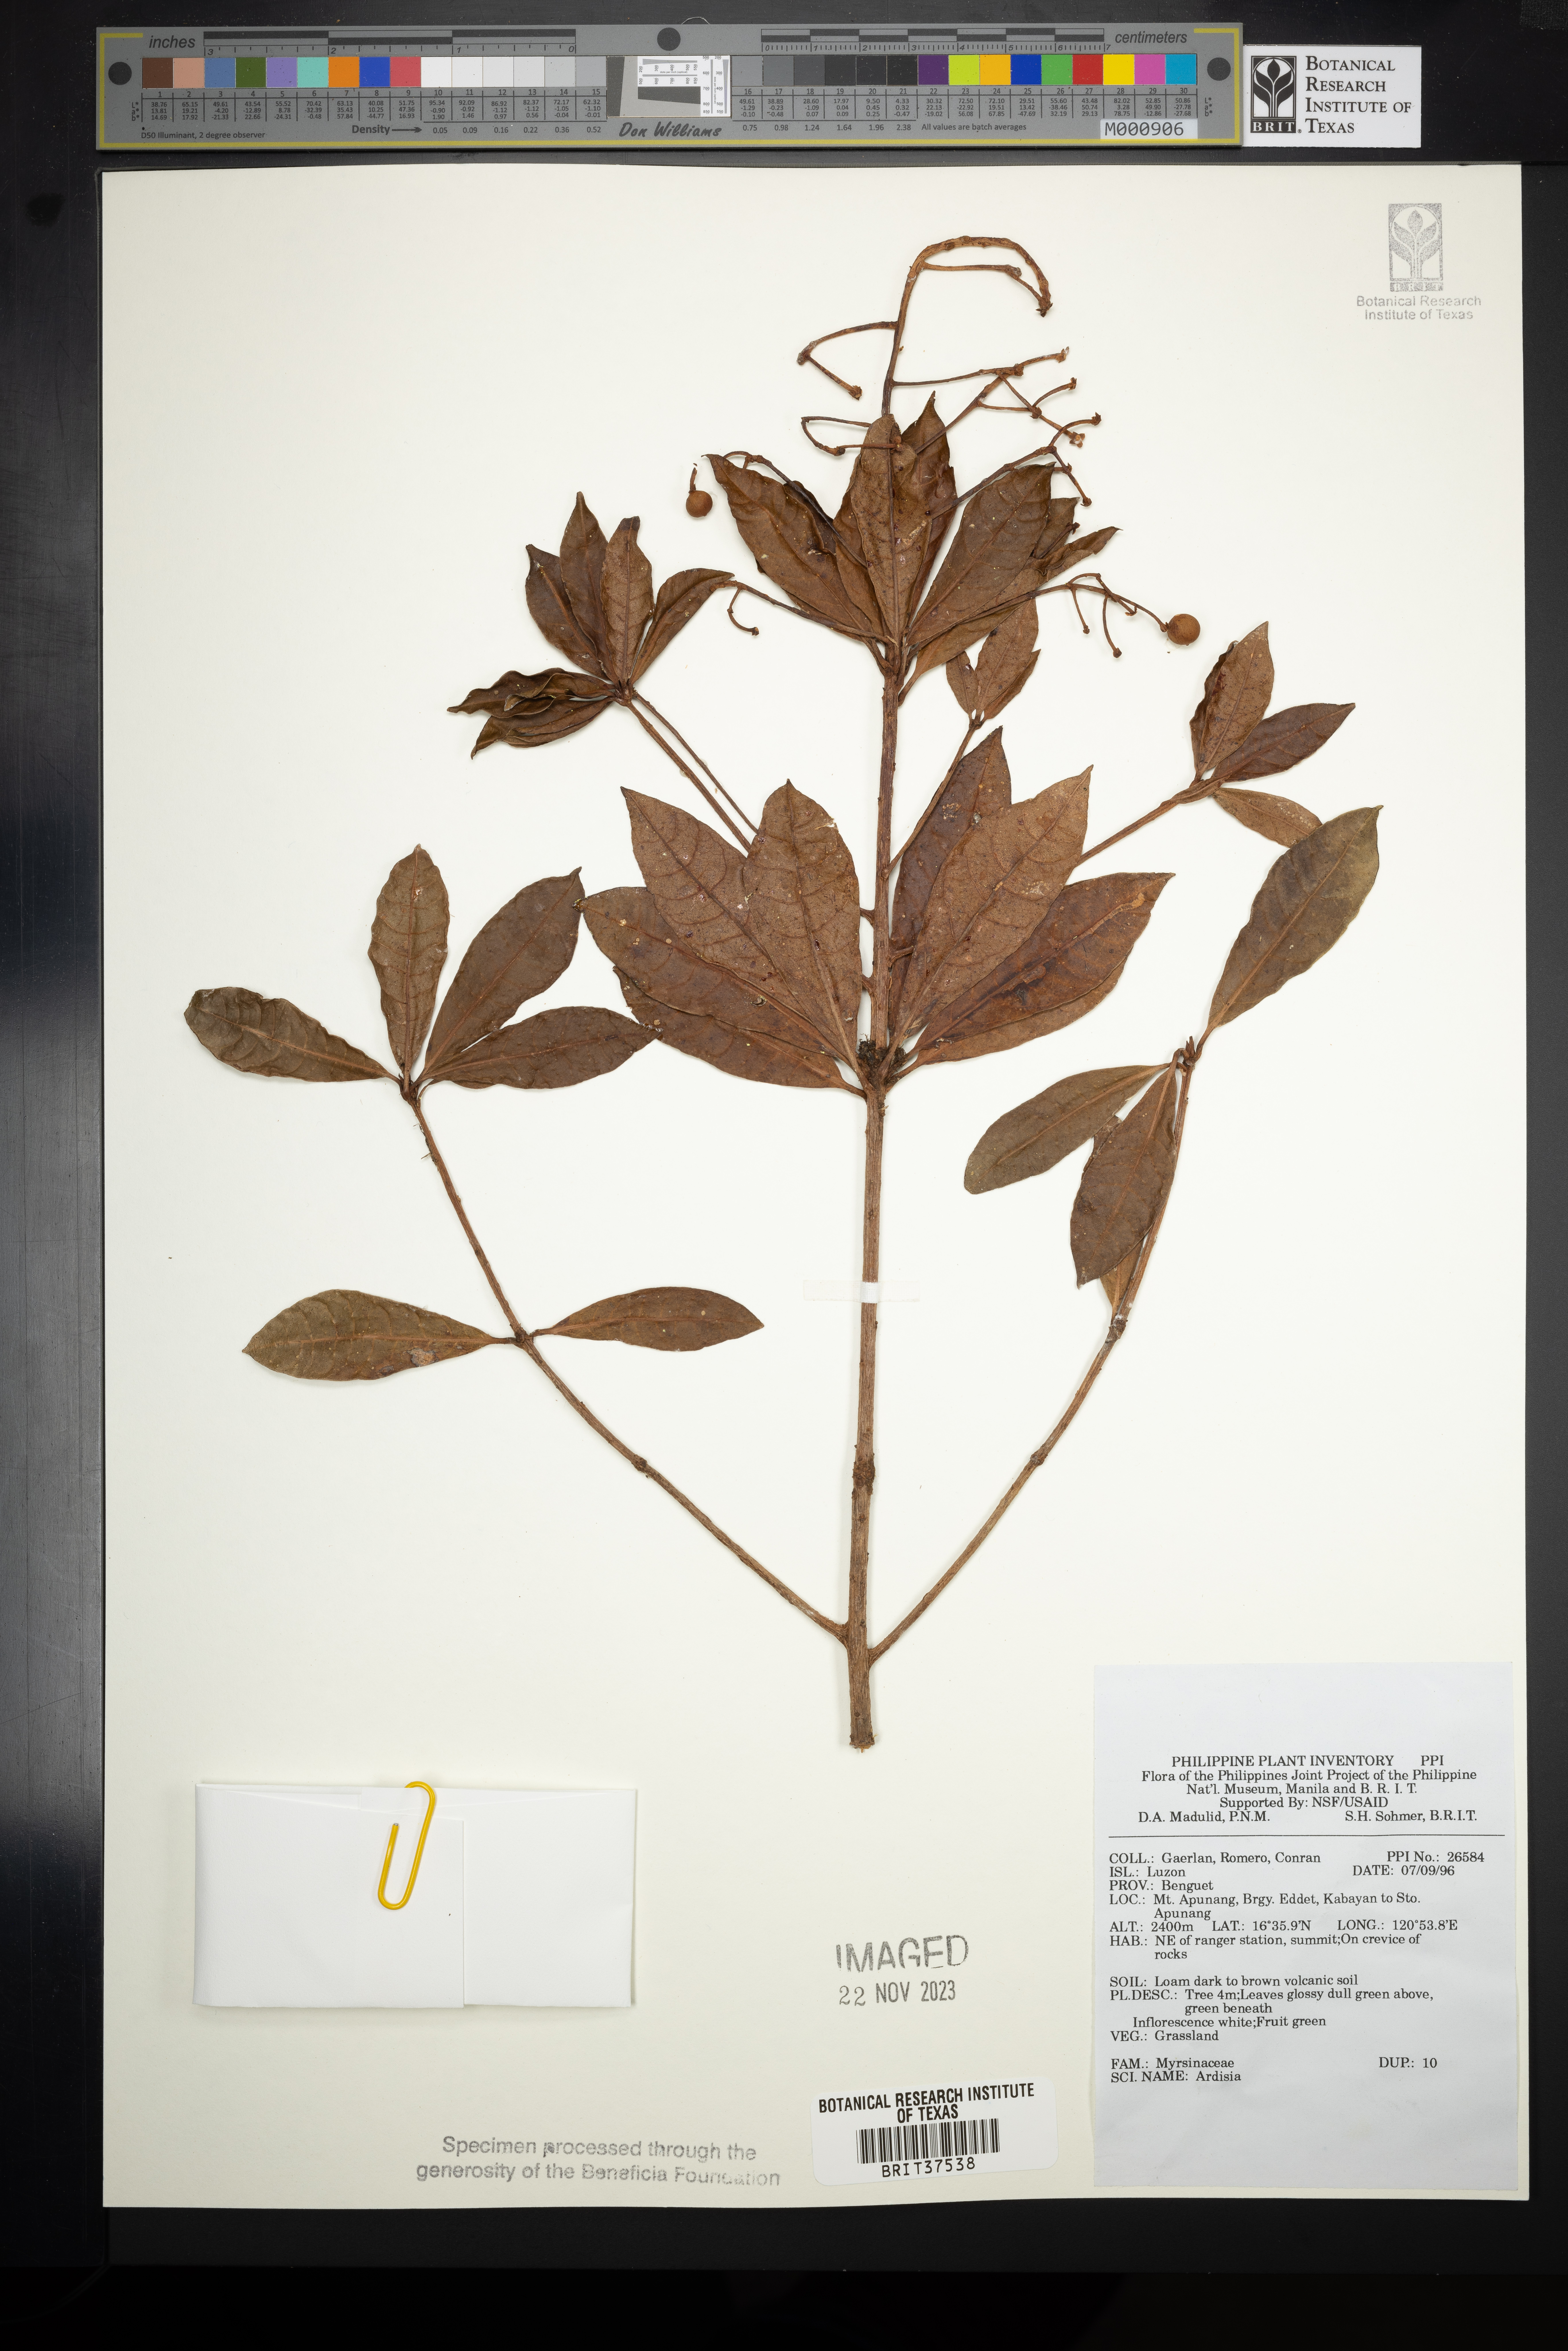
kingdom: Plantae
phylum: Tracheophyta
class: Magnoliopsida
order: Ericales
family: Primulaceae
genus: Ardisia
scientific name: Ardisia
